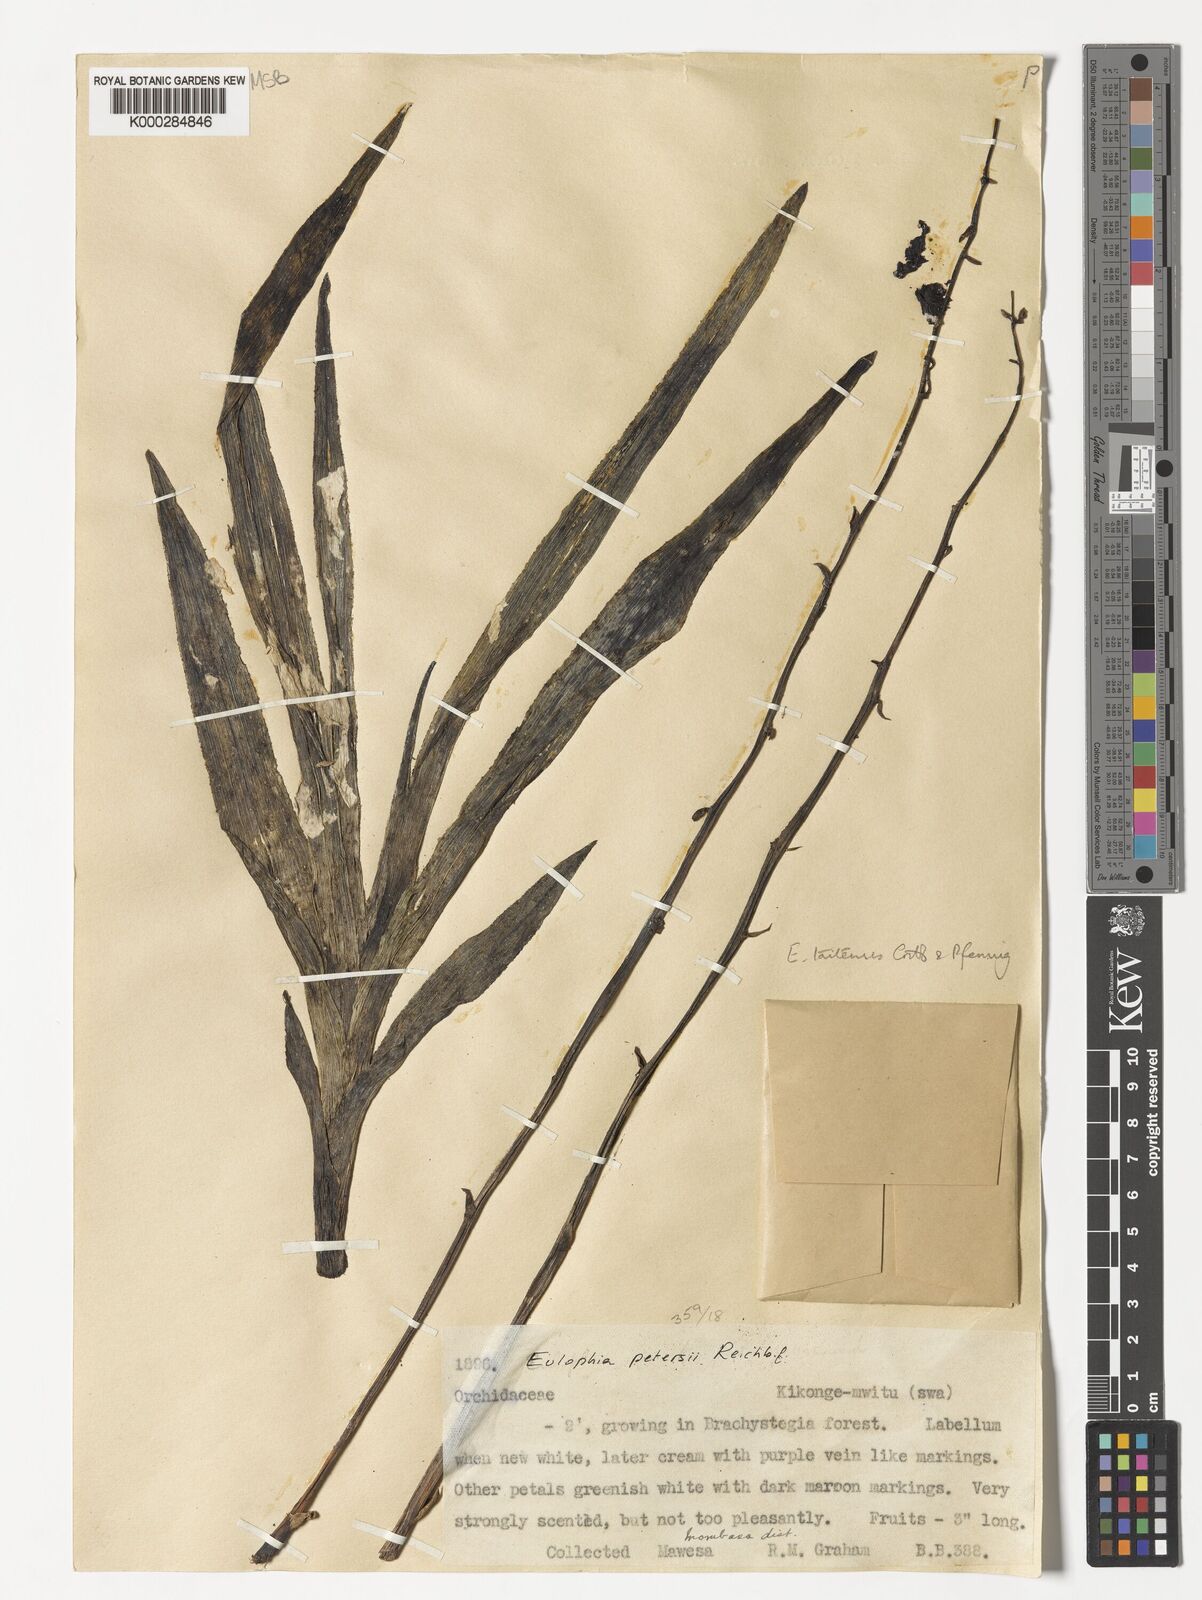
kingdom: Plantae
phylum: Tracheophyta
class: Liliopsida
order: Asparagales
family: Orchidaceae
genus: Eulophia
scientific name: Eulophia taitensis
